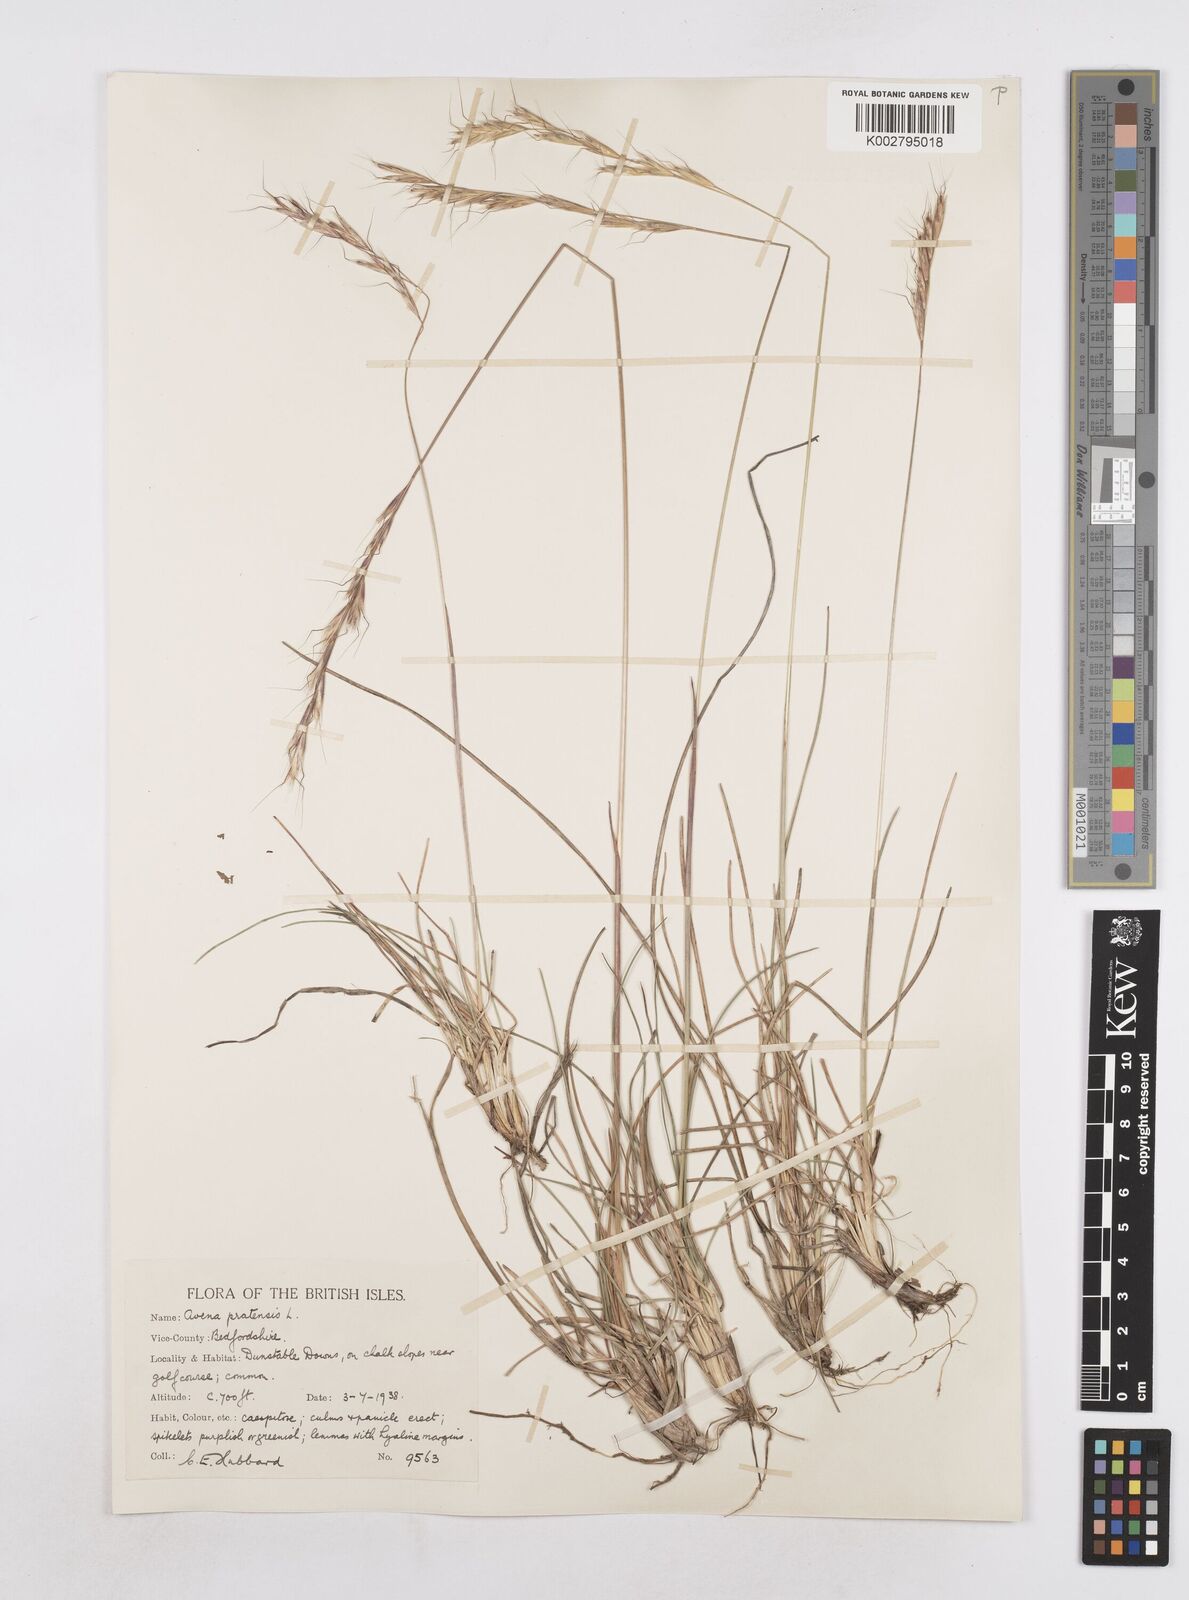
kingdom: Plantae
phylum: Tracheophyta
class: Liliopsida
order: Poales
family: Poaceae
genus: Helictochloa
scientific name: Helictochloa pratensis
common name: Meadow oat grass
